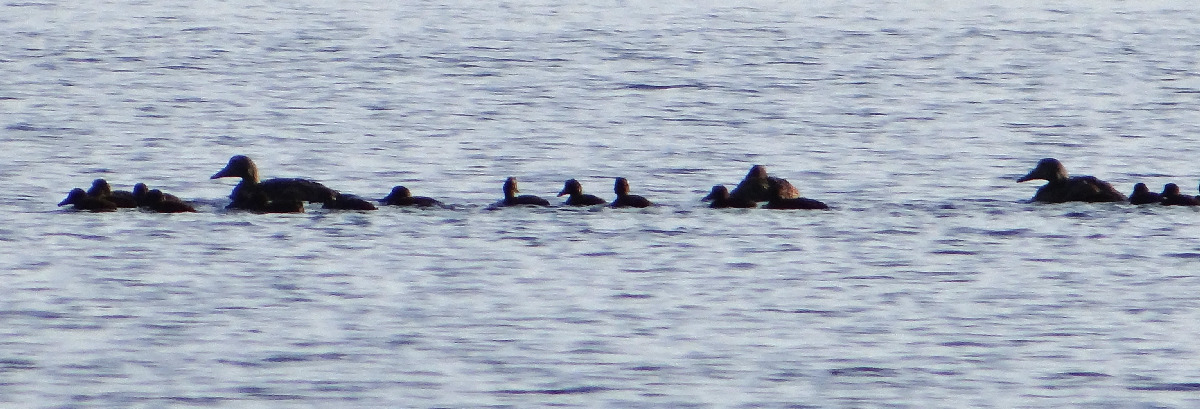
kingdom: Animalia
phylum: Chordata
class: Aves
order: Anseriformes
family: Anatidae
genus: Somateria
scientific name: Somateria mollissima
